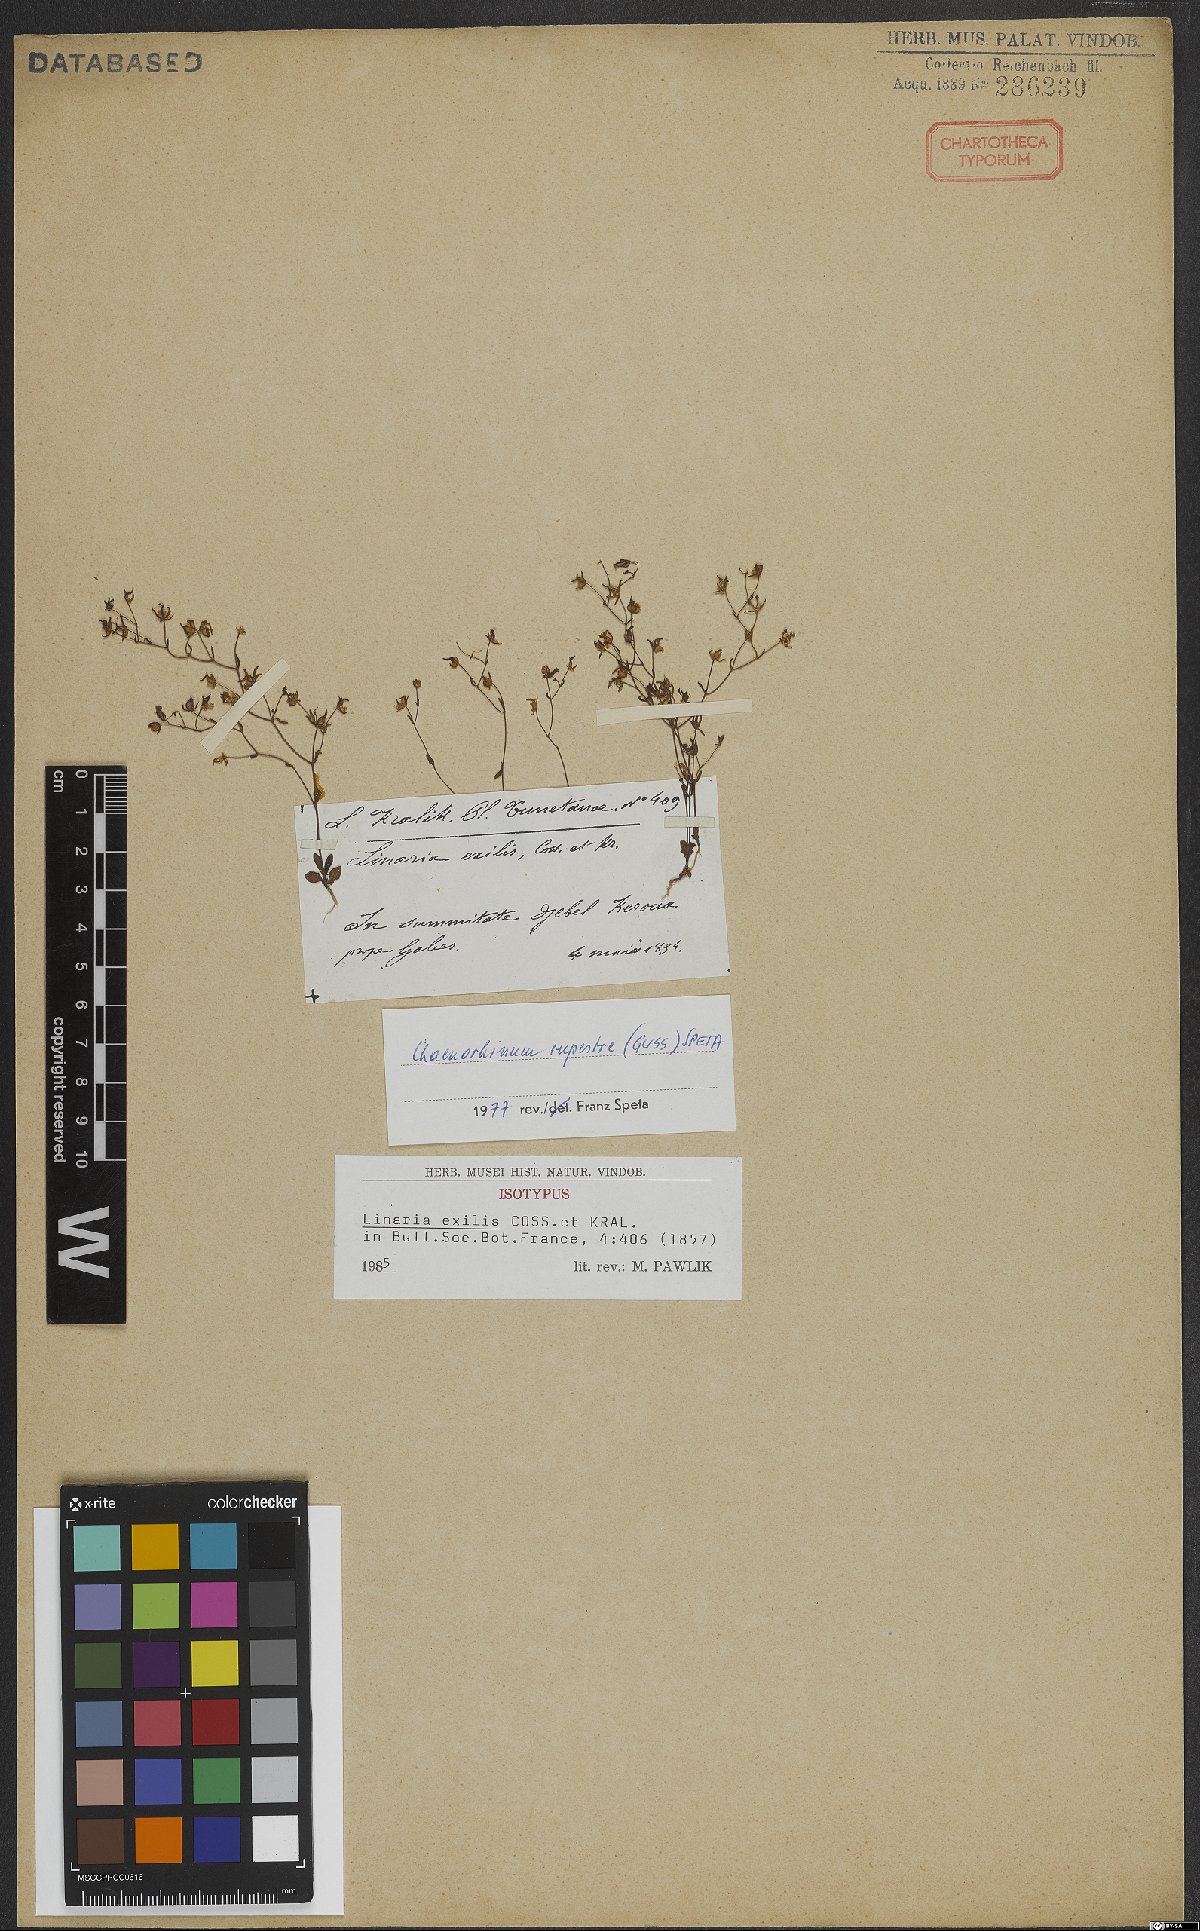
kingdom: Plantae
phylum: Tracheophyta
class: Magnoliopsida
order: Lamiales
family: Plantaginaceae
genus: Chaenorhinum
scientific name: Chaenorhinum rupestre
